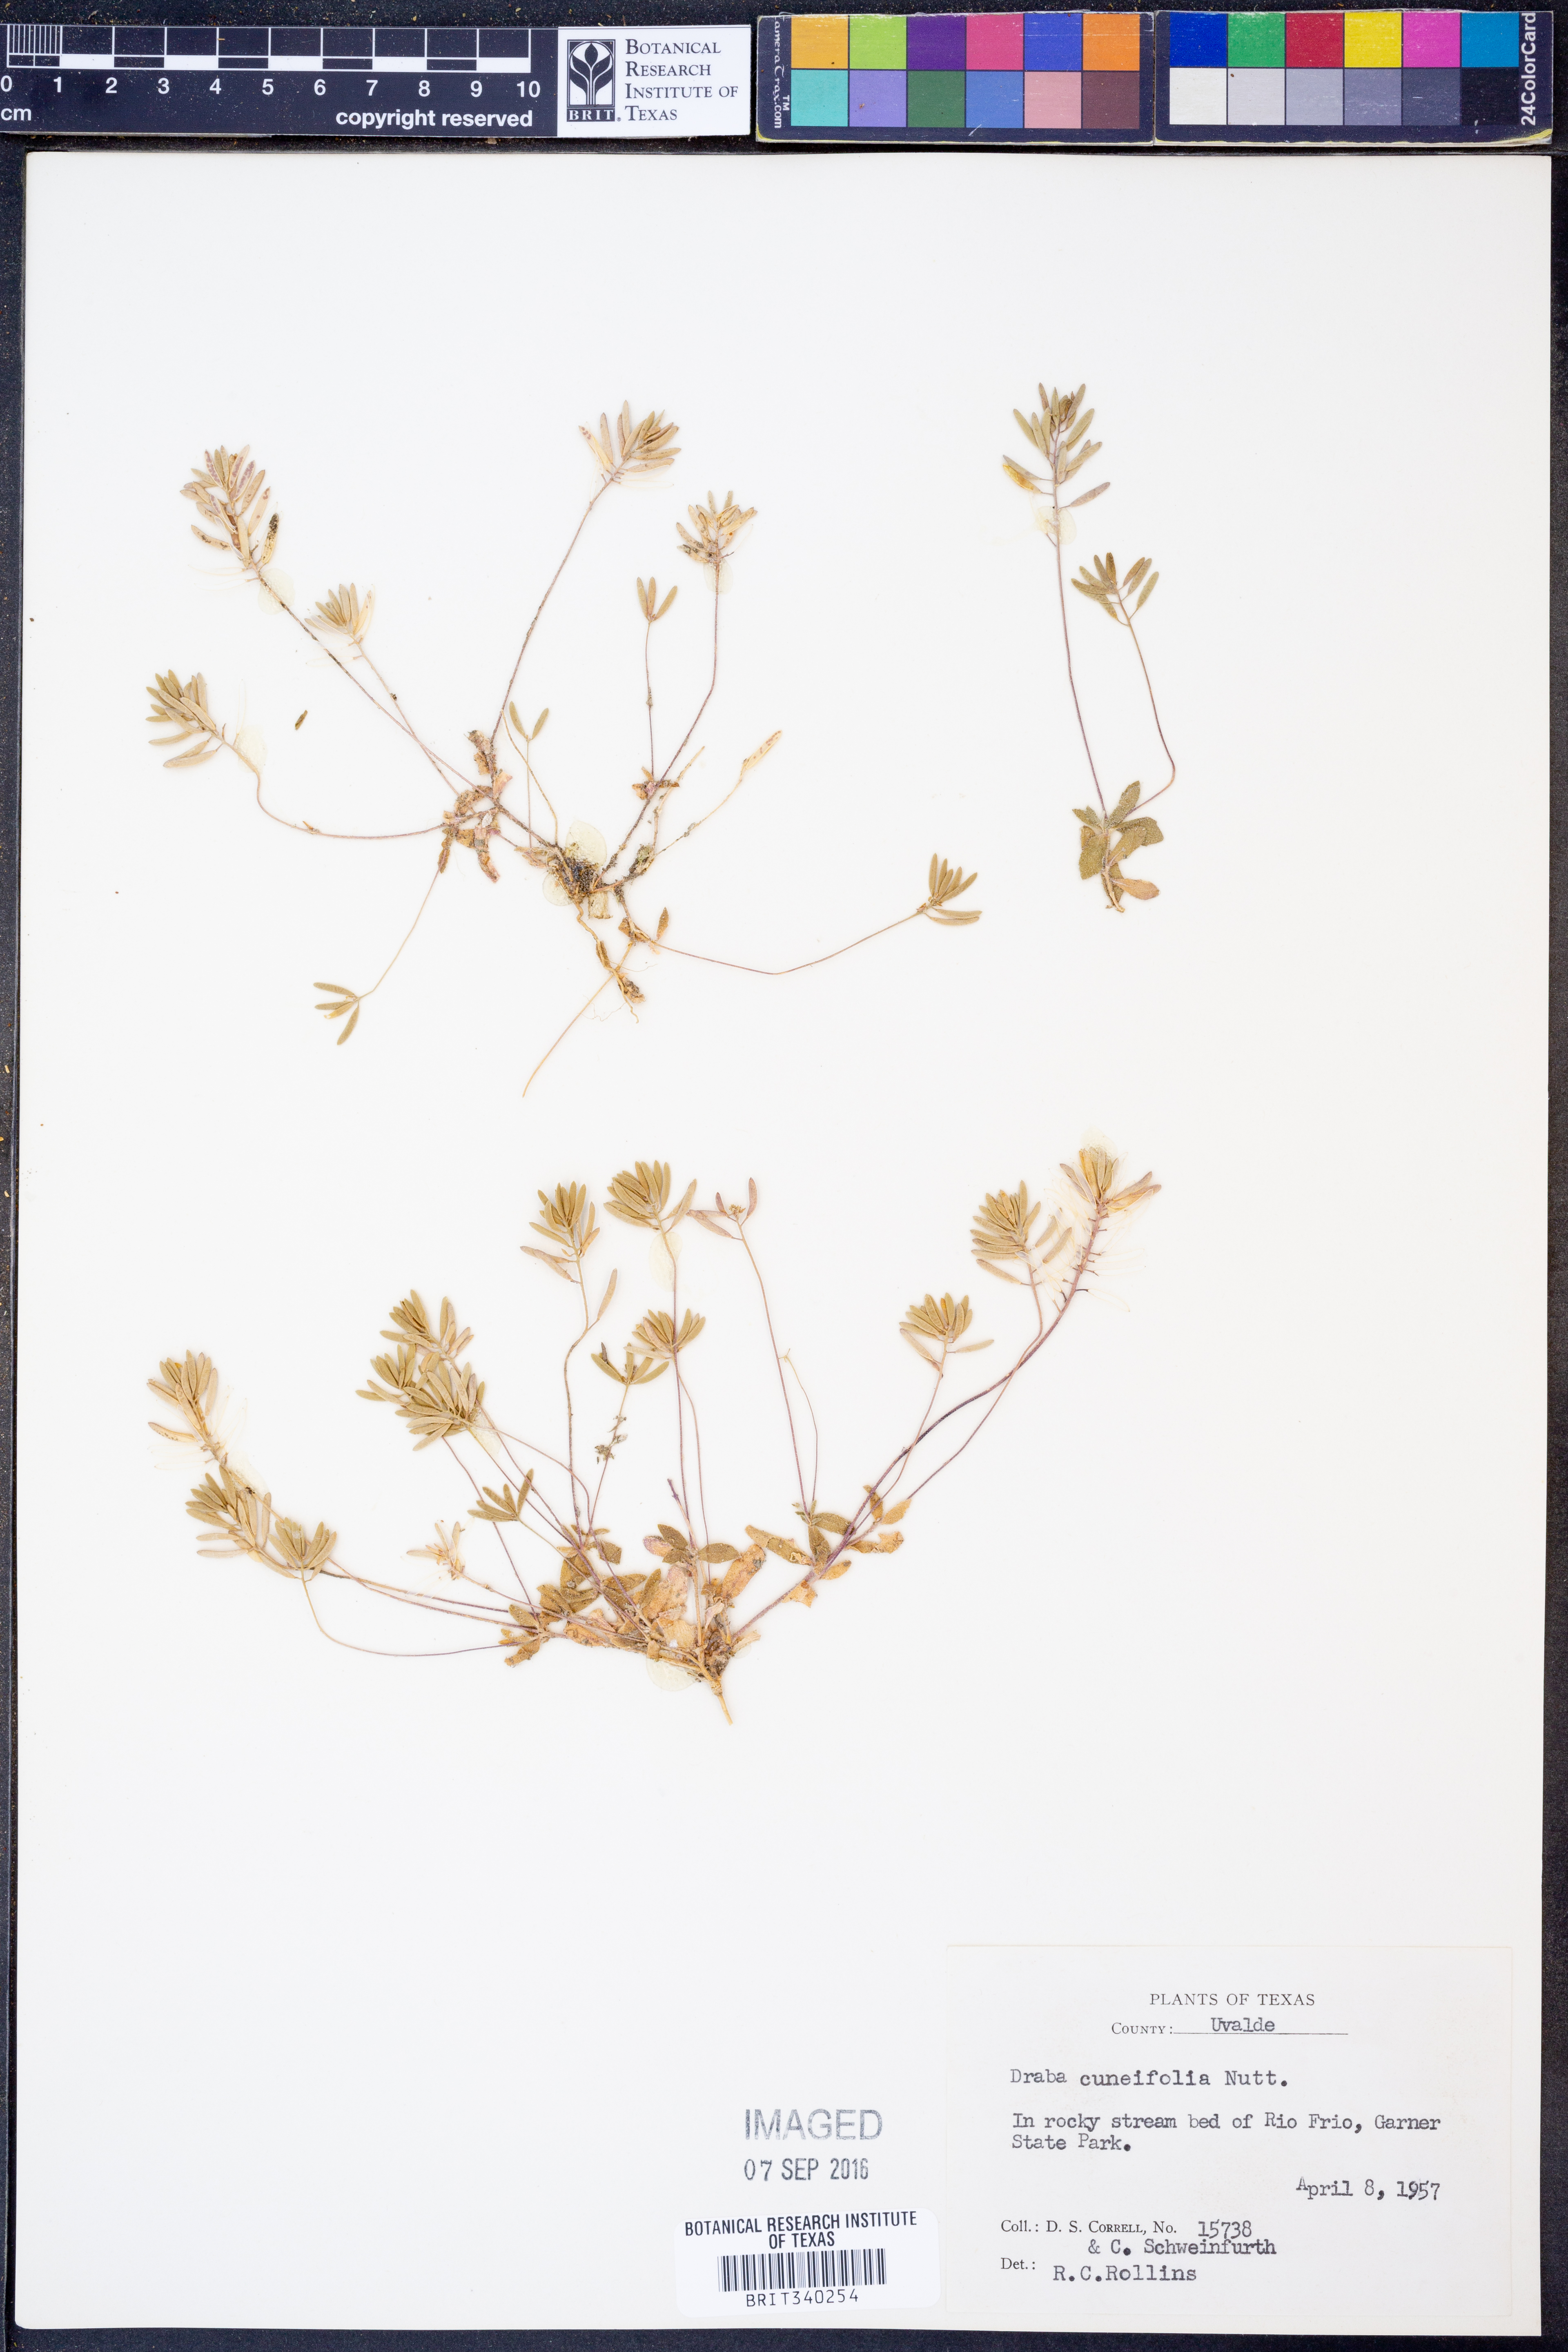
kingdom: Plantae
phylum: Tracheophyta
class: Magnoliopsida
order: Brassicales
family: Brassicaceae
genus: Tomostima
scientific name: Tomostima cuneifolia
